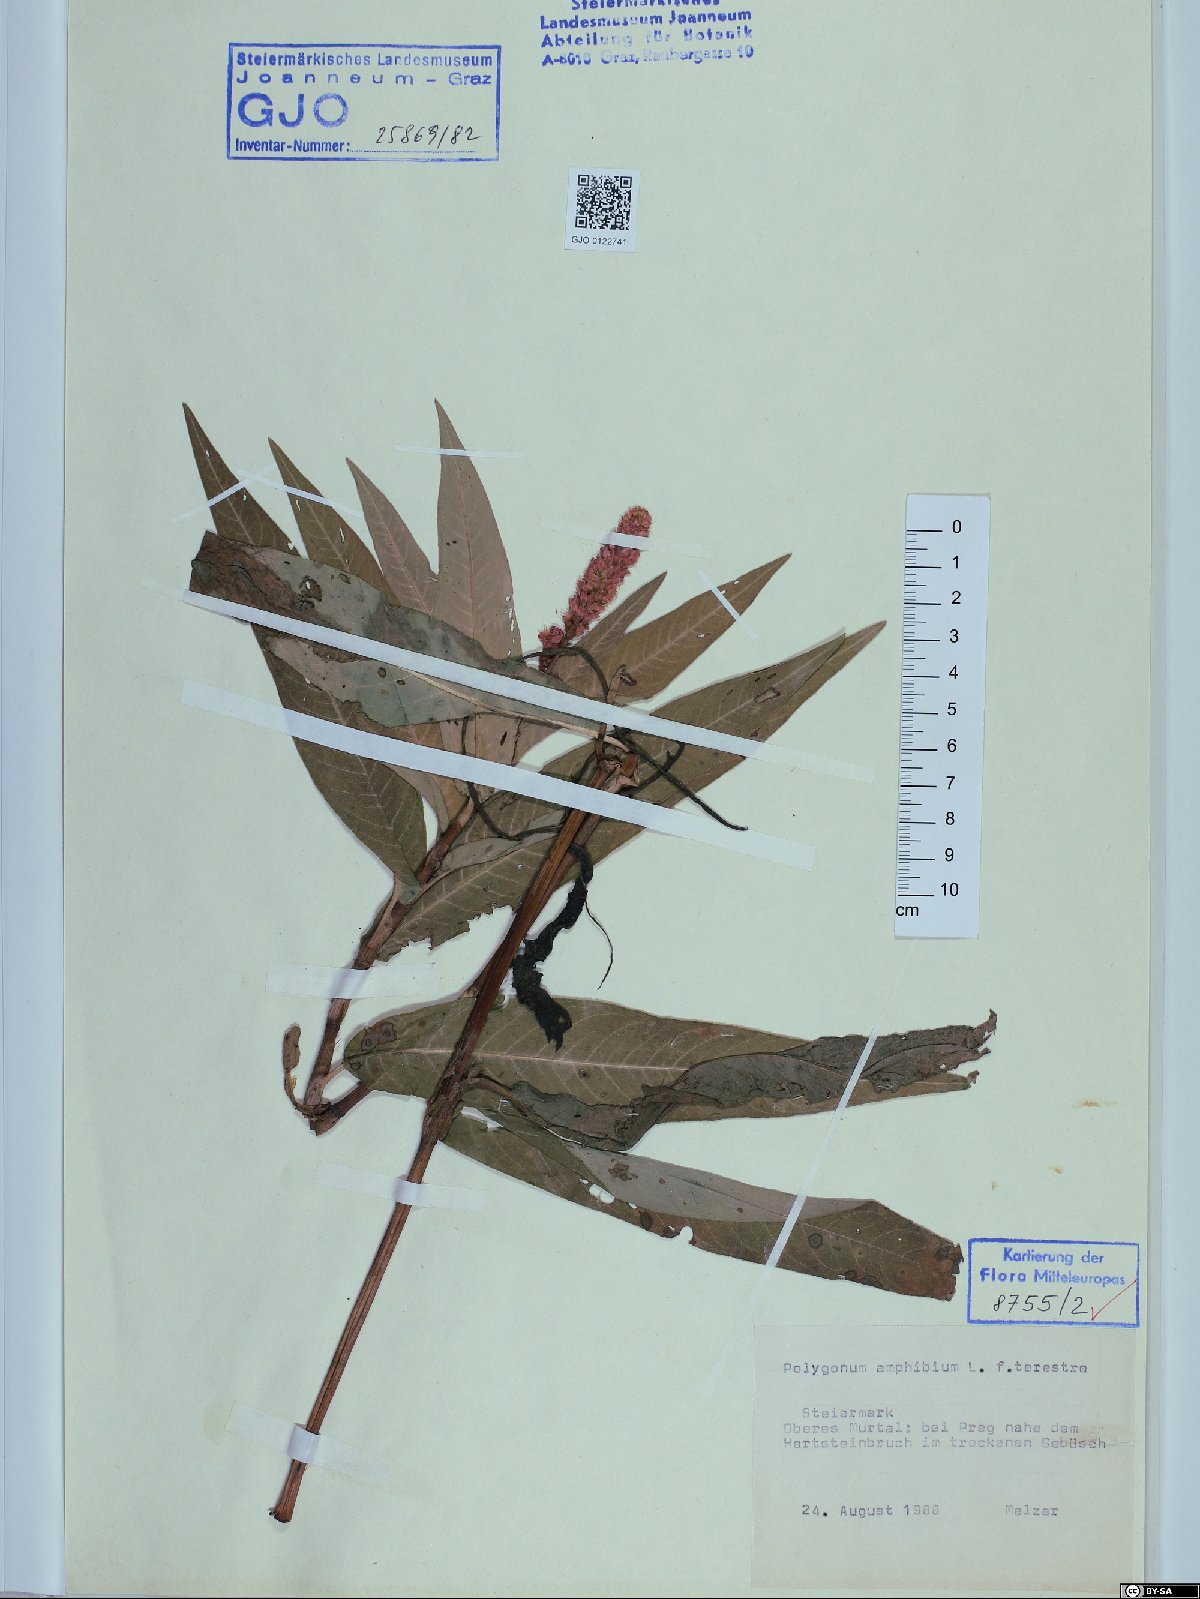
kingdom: Plantae
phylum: Tracheophyta
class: Magnoliopsida
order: Caryophyllales
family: Polygonaceae
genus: Persicaria
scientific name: Persicaria amphibia
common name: Amphibious bistort
